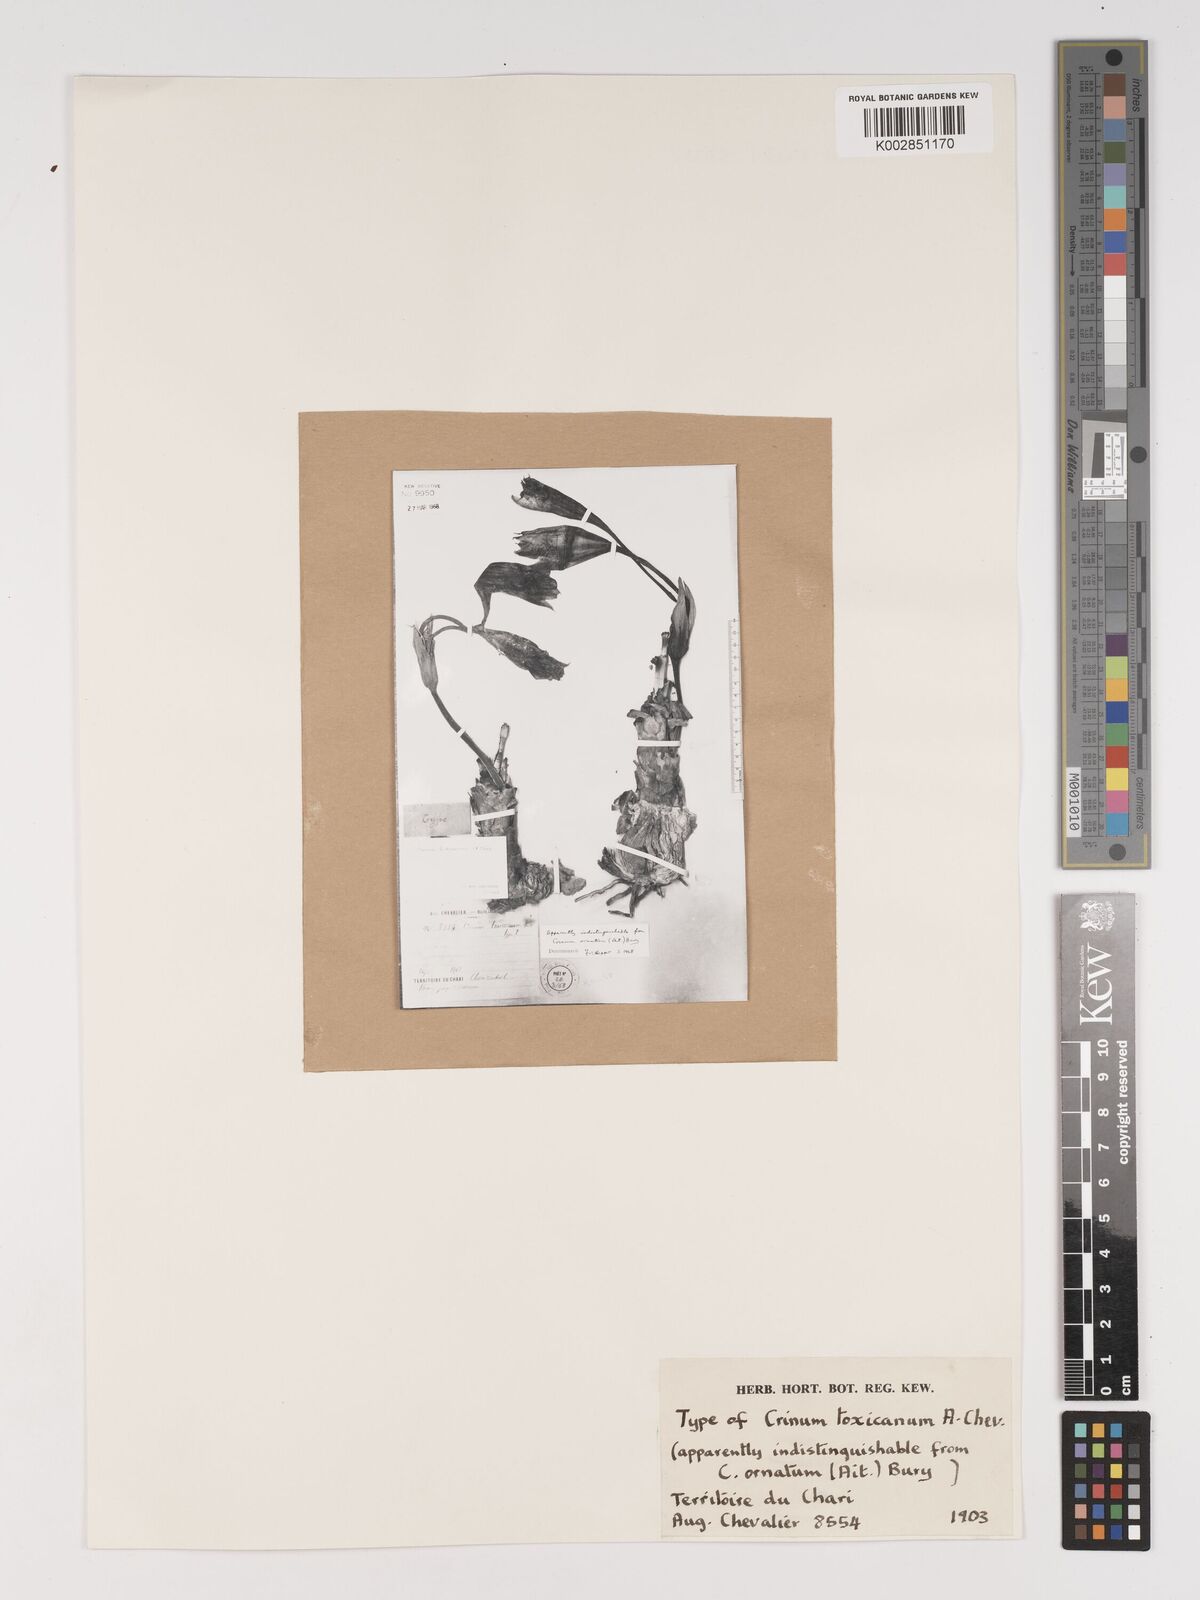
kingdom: Plantae
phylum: Tracheophyta
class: Liliopsida
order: Asparagales
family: Amaryllidaceae
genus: Crinum
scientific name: Crinum ornatum
